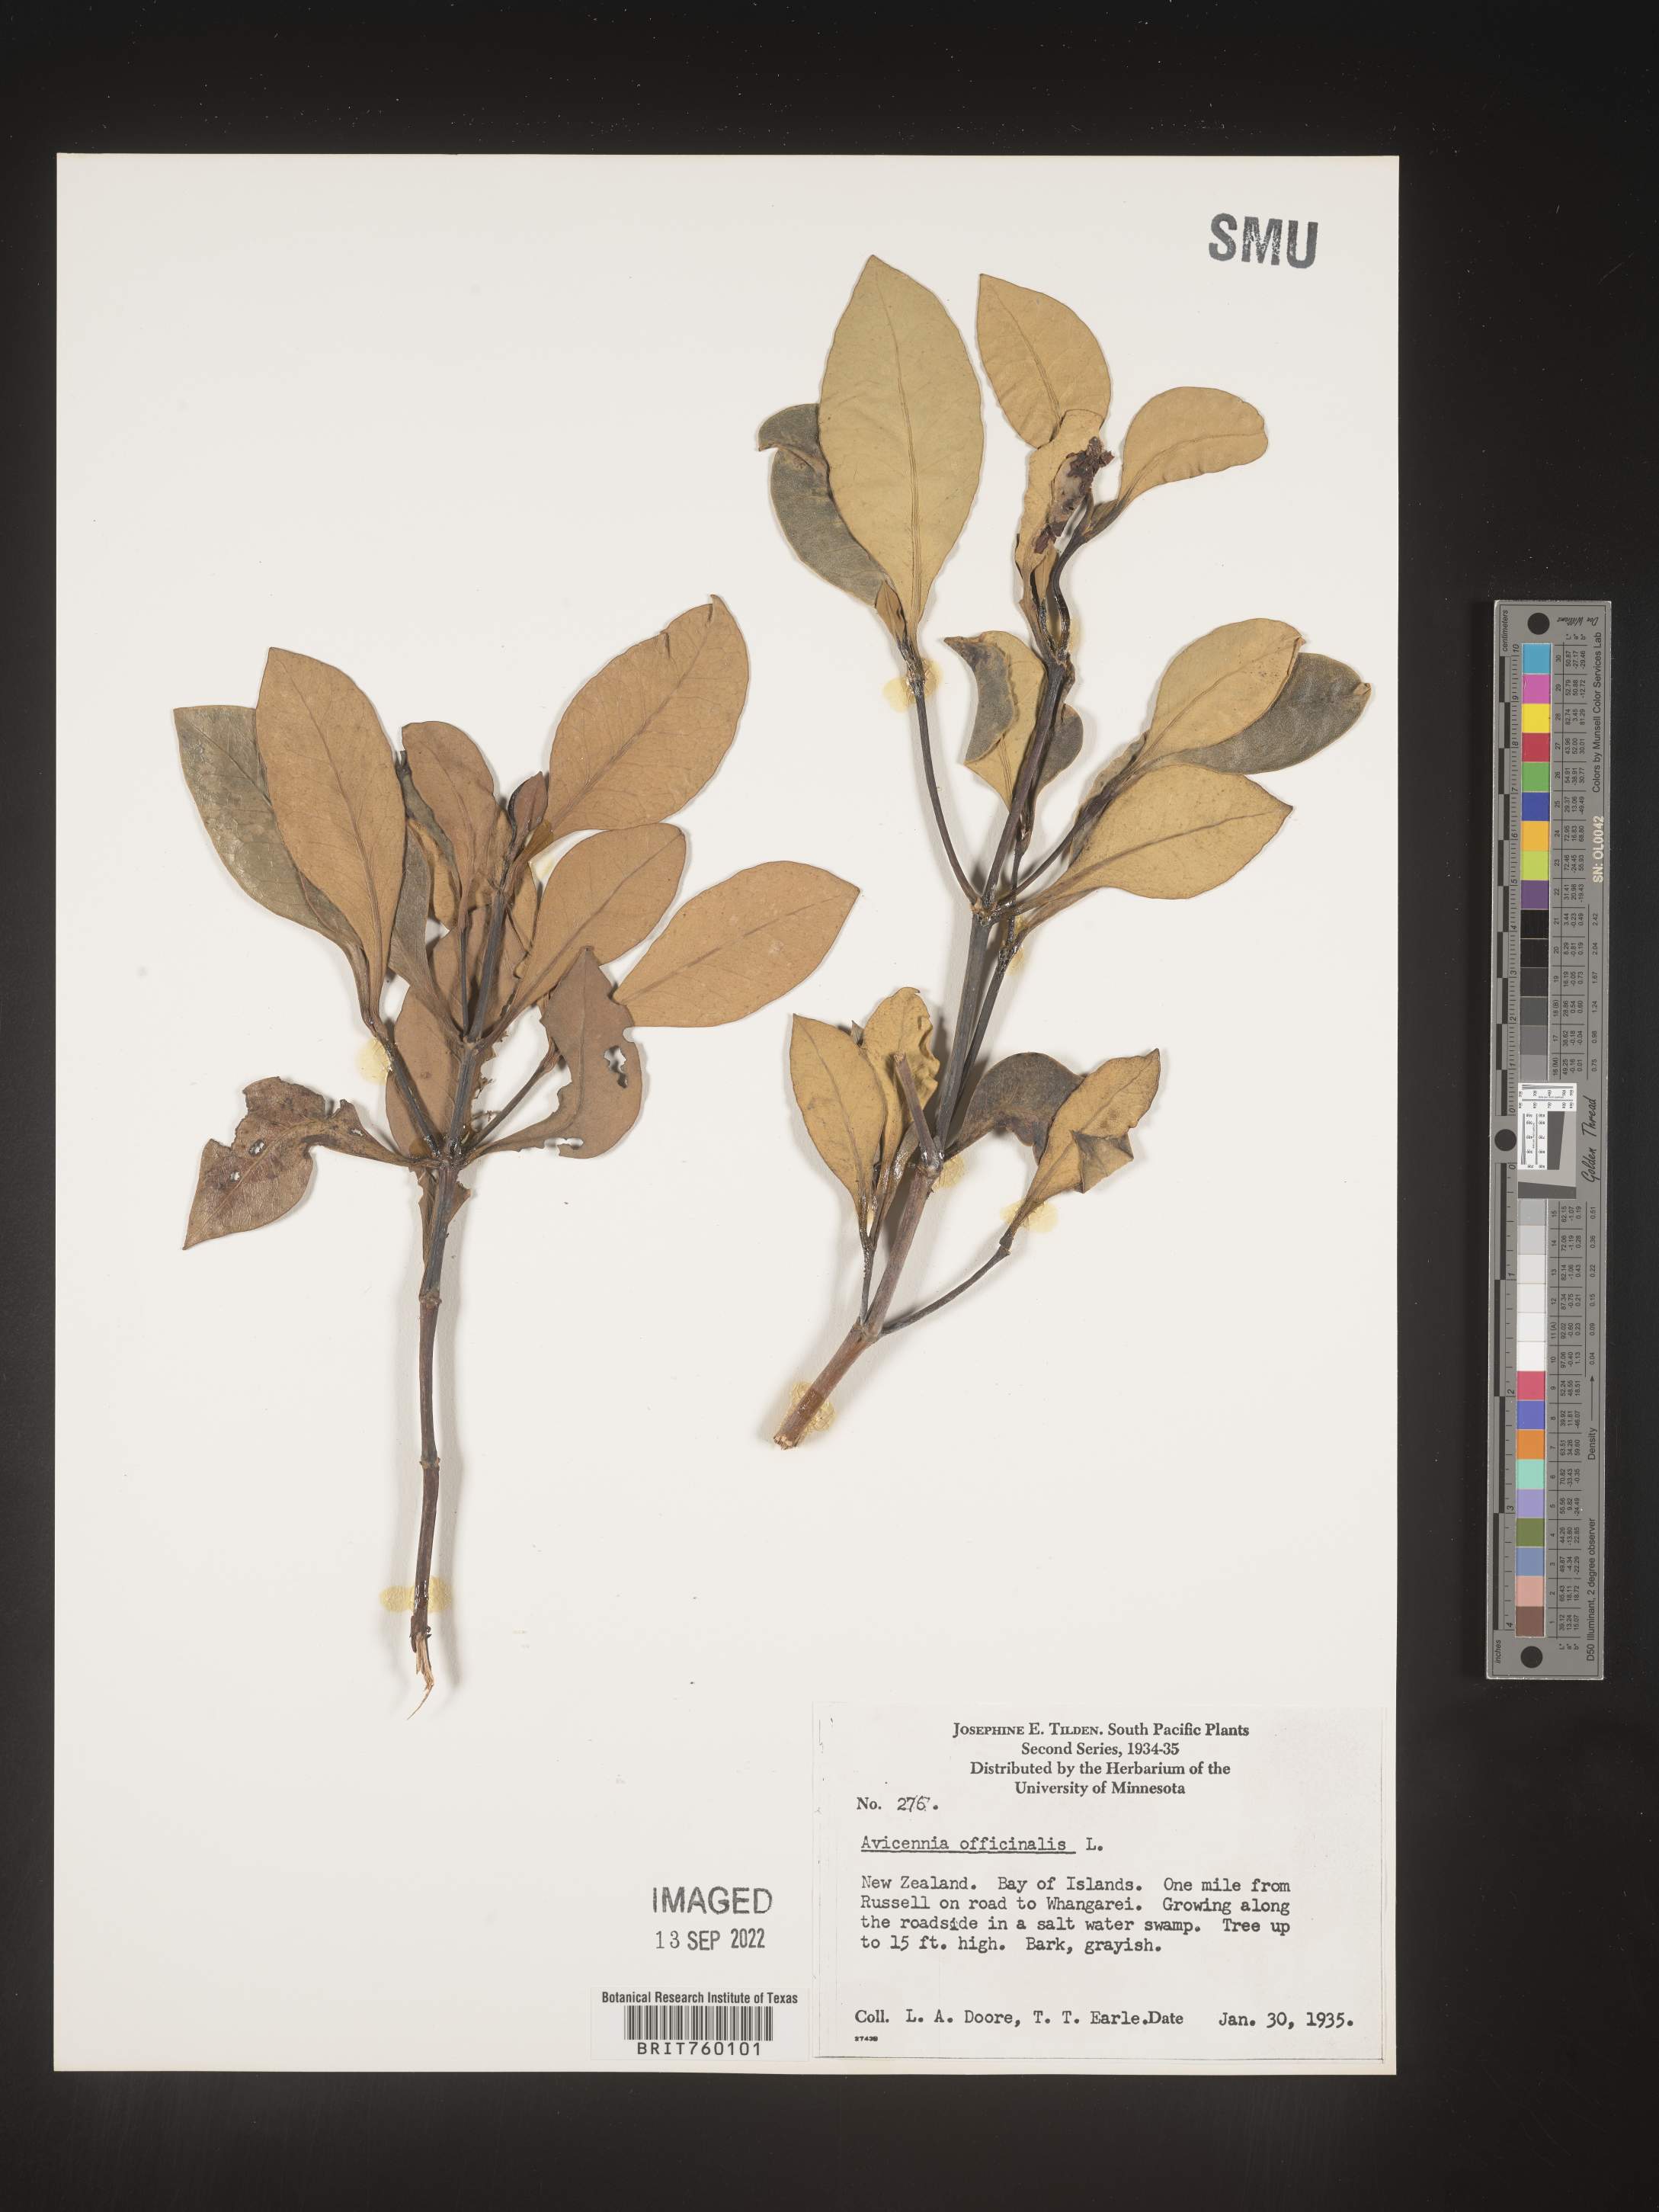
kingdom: Plantae
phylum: Tracheophyta
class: Magnoliopsida
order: Lamiales
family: Acanthaceae
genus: Avicennia
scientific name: Avicennia
